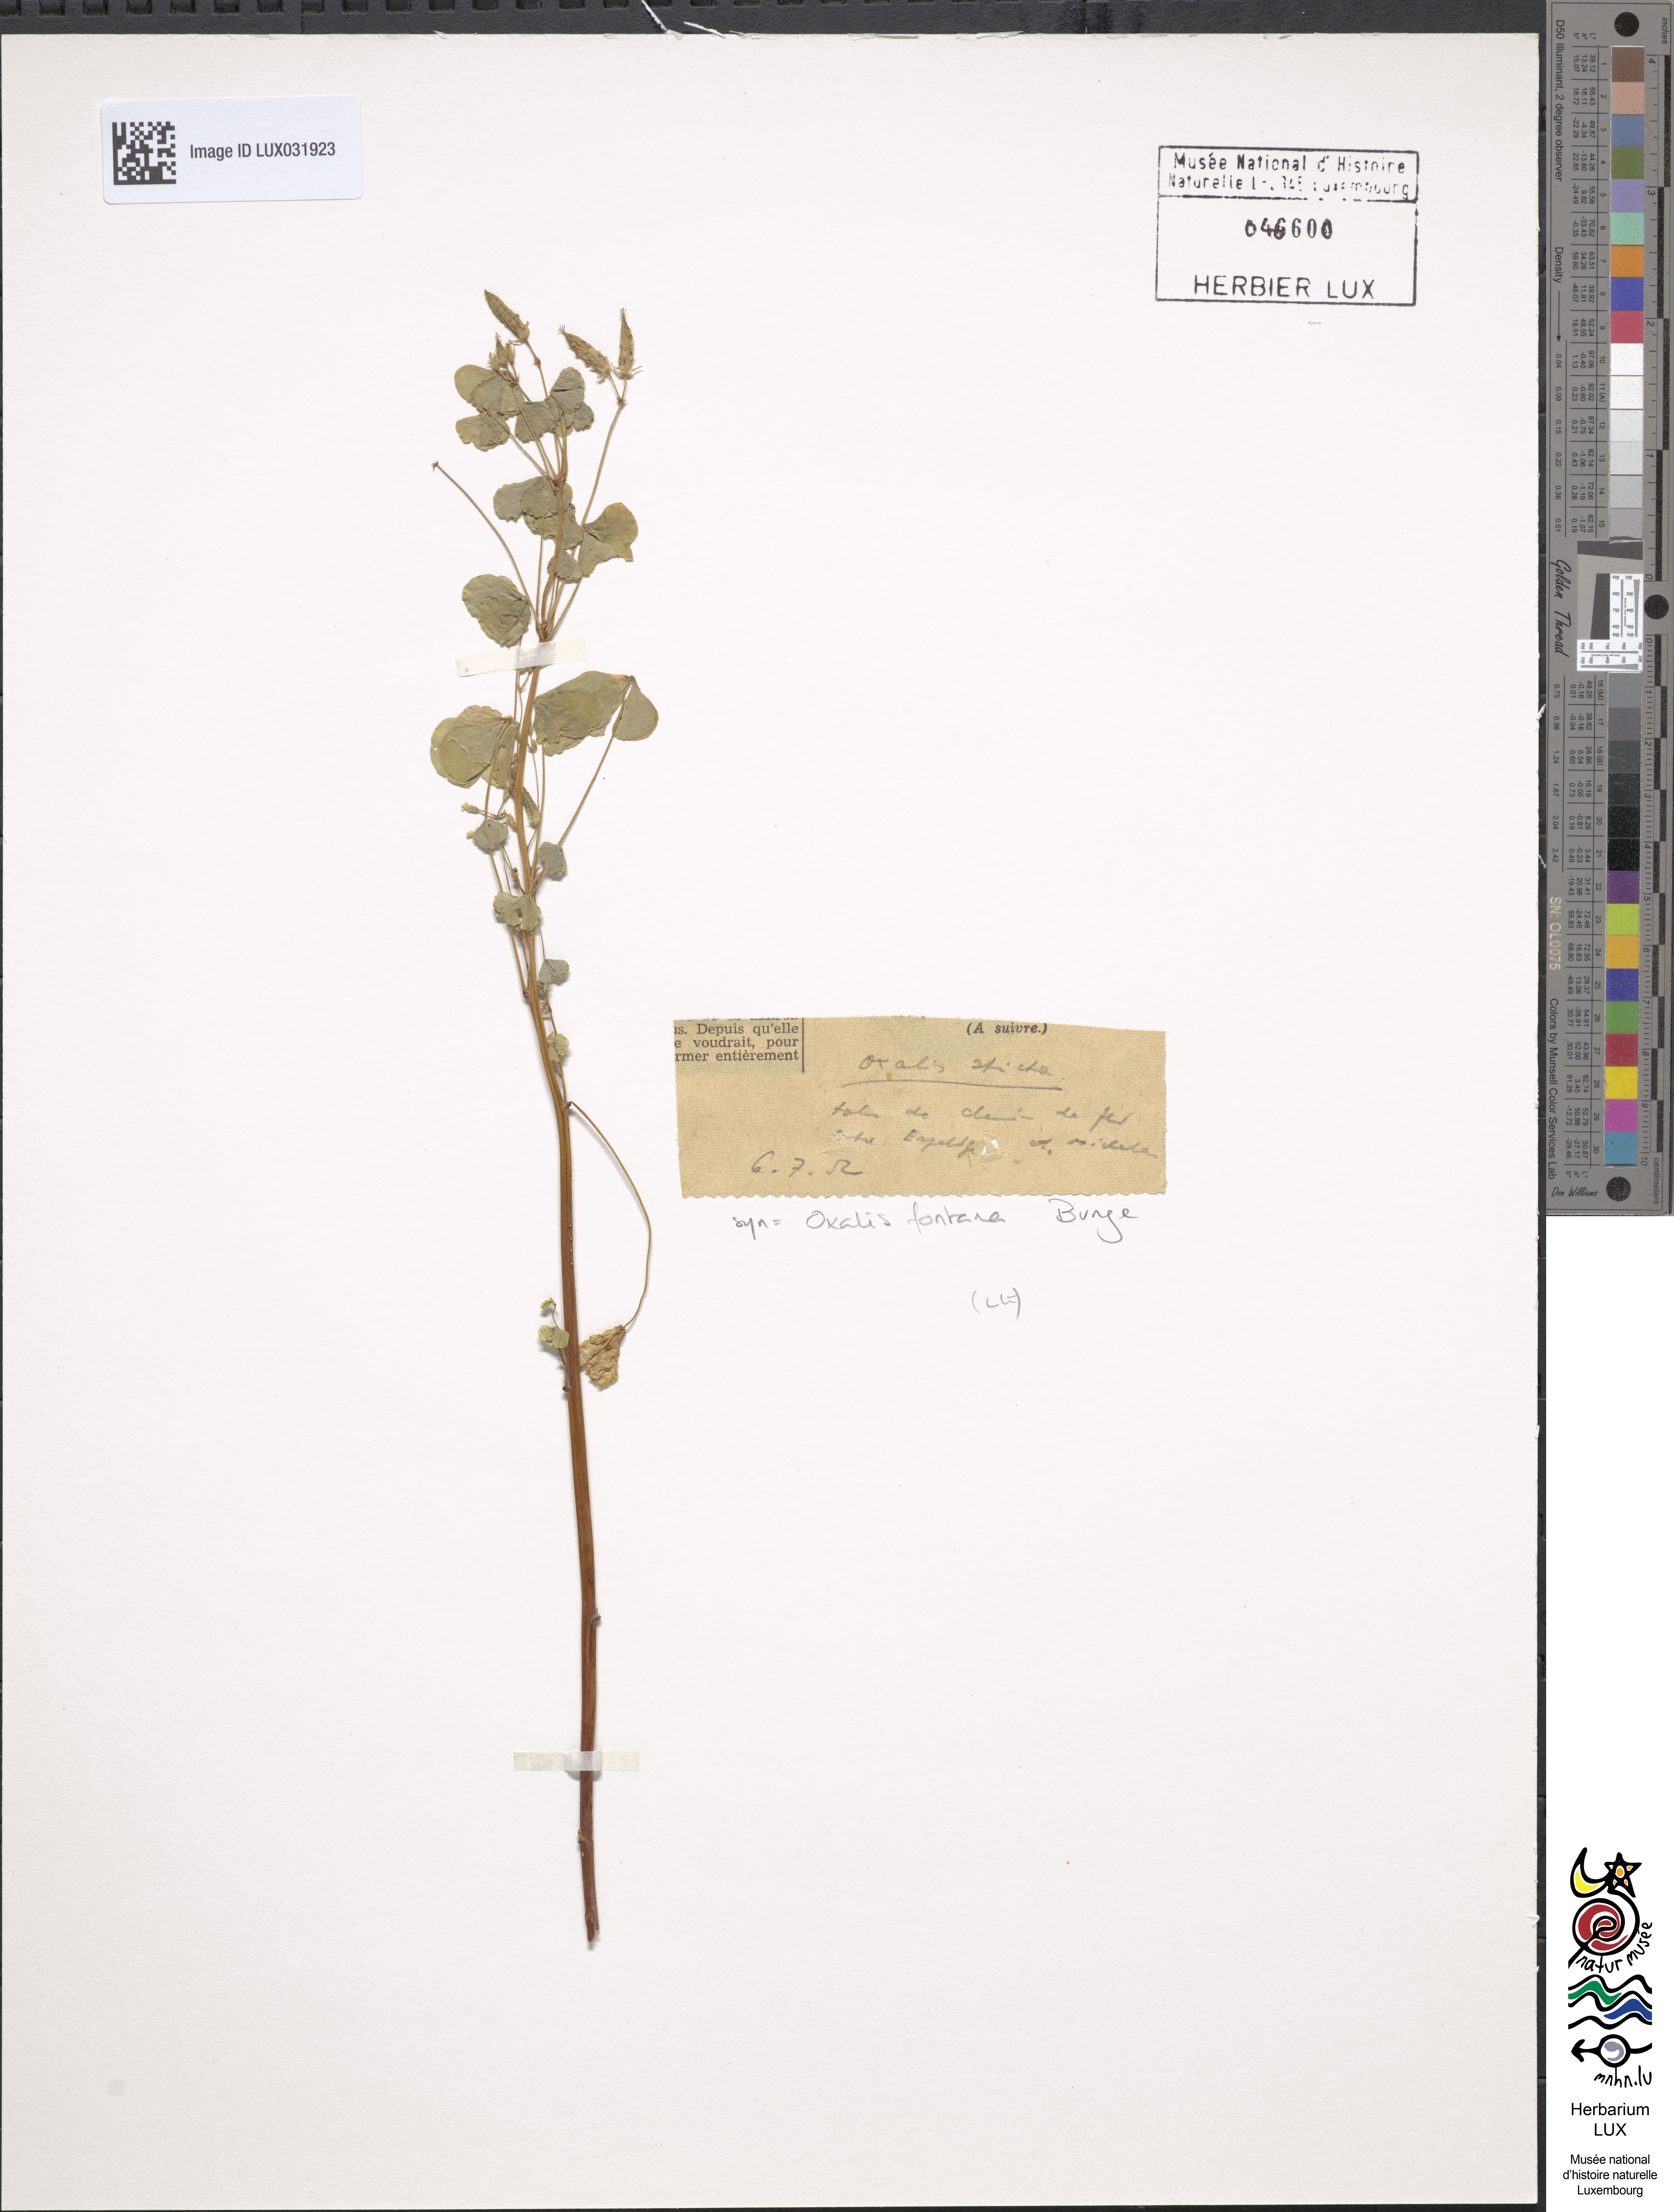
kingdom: Plantae
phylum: Tracheophyta
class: Magnoliopsida
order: Oxalidales
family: Oxalidaceae
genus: Oxalis
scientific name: Oxalis stricta
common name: Upright yellow-sorrel
